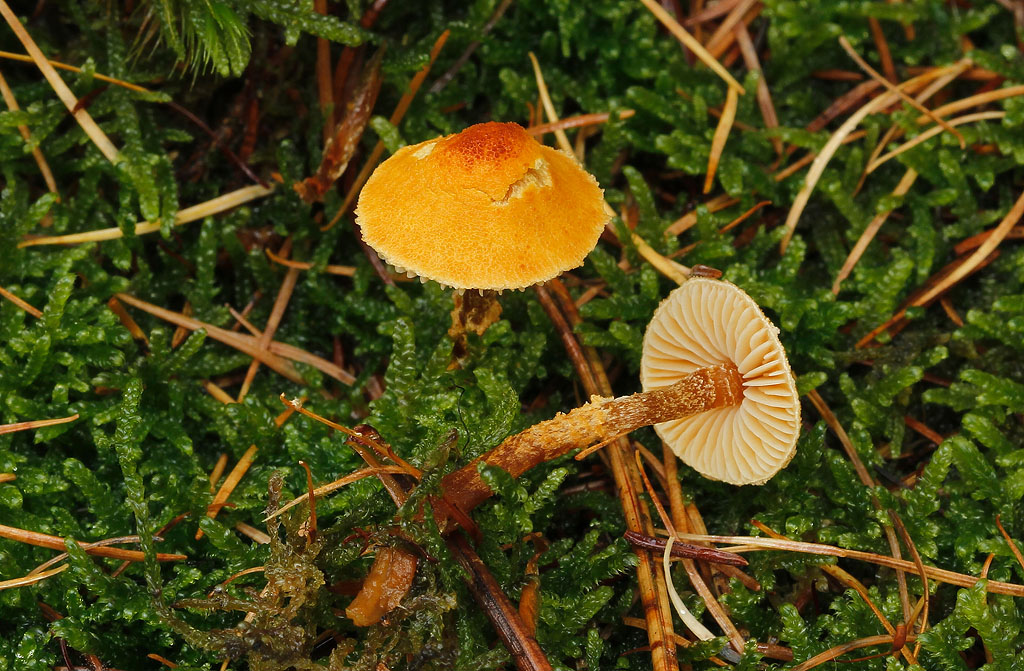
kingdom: Fungi
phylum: Basidiomycota
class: Agaricomycetes
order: Agaricales
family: Tricholomataceae
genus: Cystoderma
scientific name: Cystoderma jasonis
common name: gulkødet grynhat
